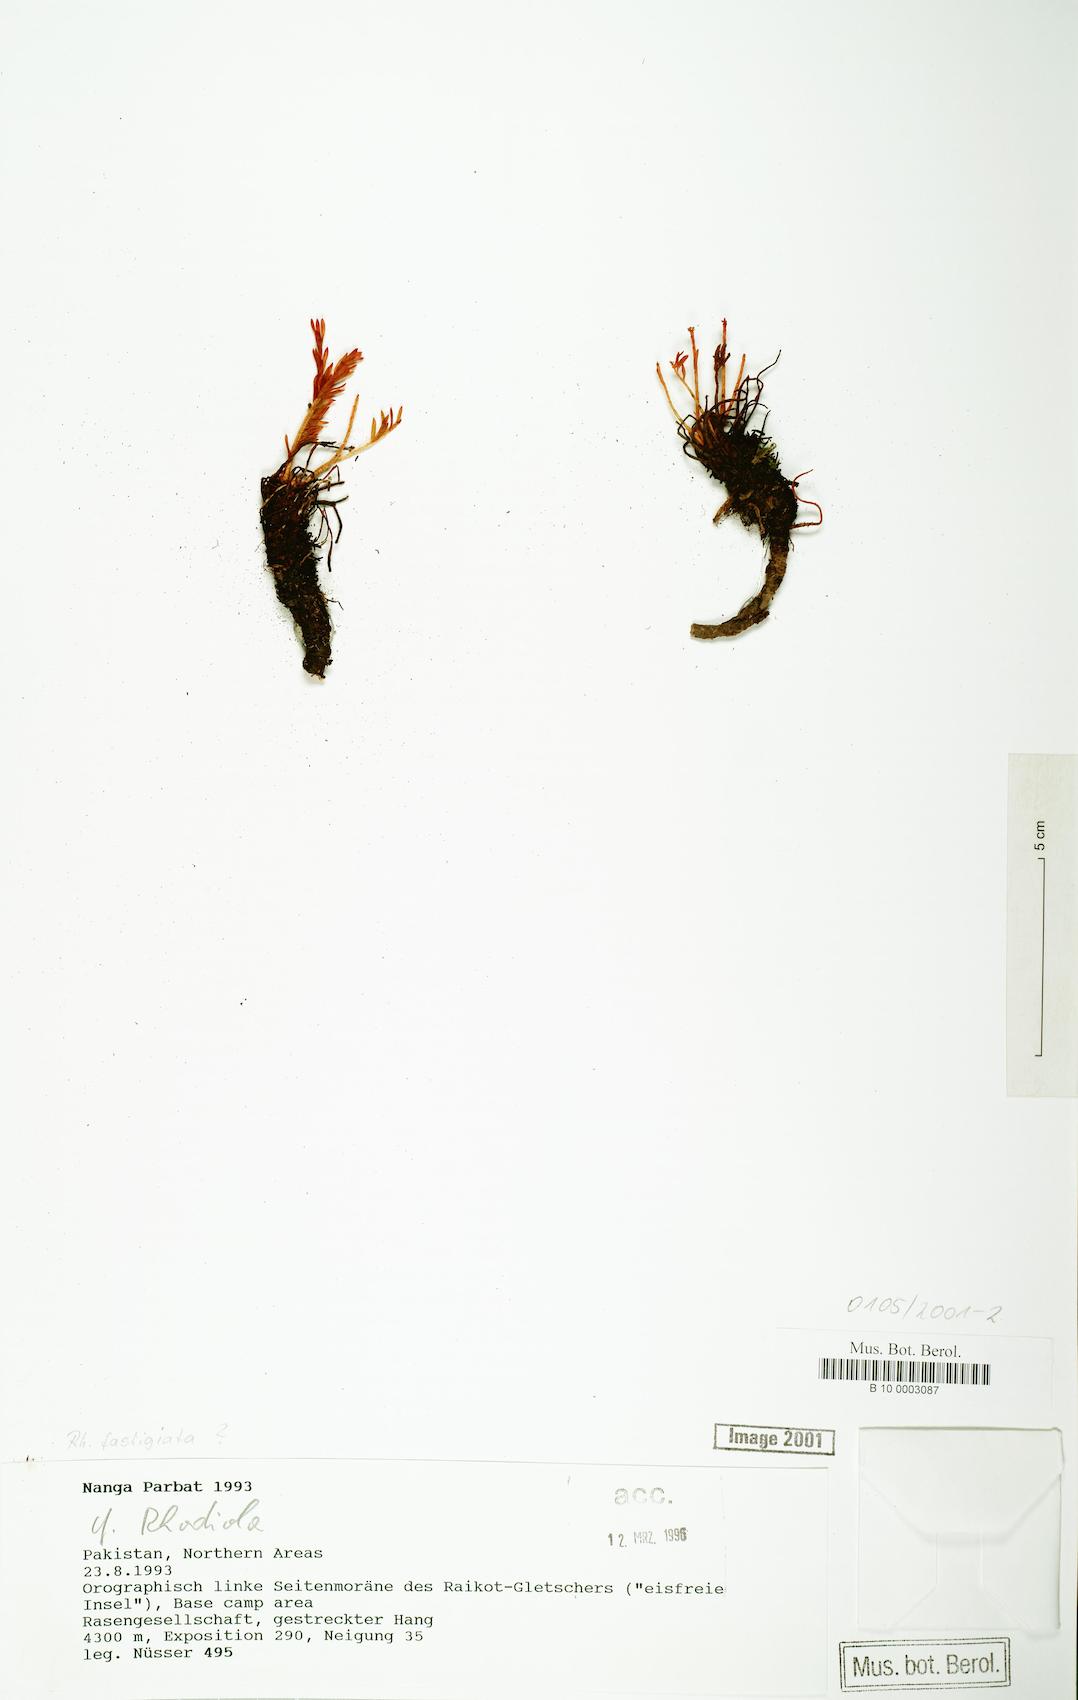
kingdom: Plantae
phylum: Tracheophyta
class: Magnoliopsida
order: Saxifragales
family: Crassulaceae
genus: Rhodiola
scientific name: Rhodiola fastigiata
